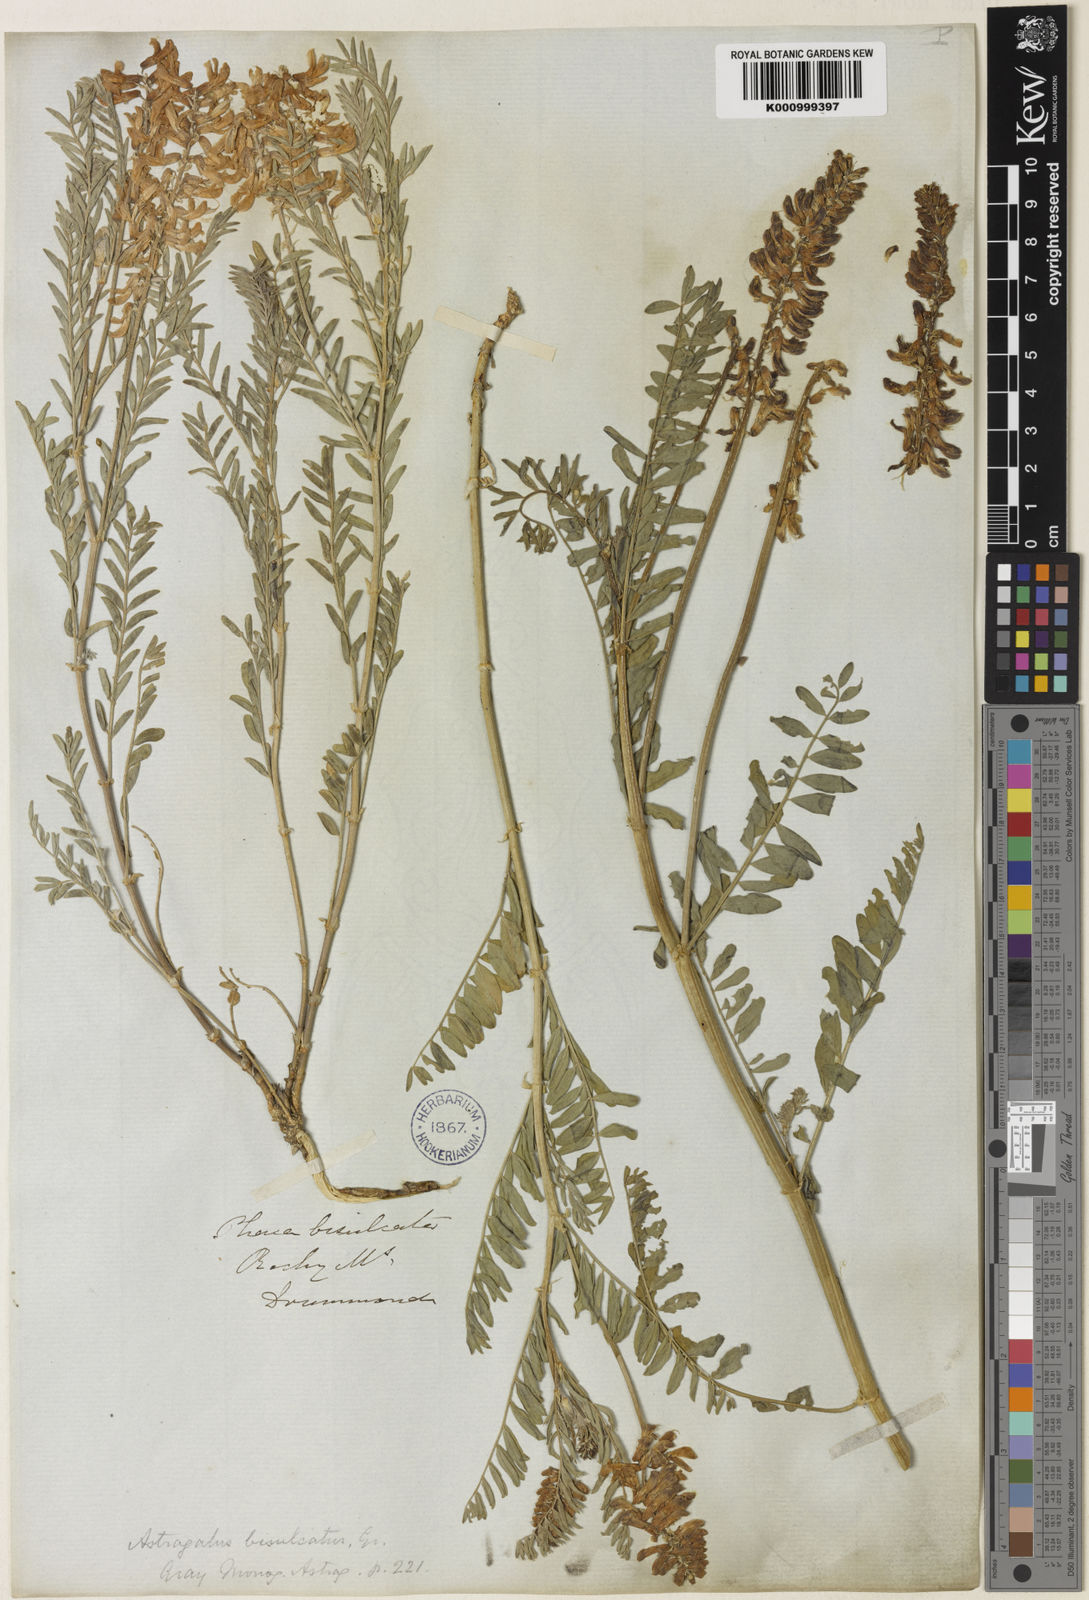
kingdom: Plantae
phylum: Tracheophyta
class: Magnoliopsida
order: Fabales
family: Fabaceae
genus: Astragalus
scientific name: Astragalus bisulcatus
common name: Two-groove milk-vetch
